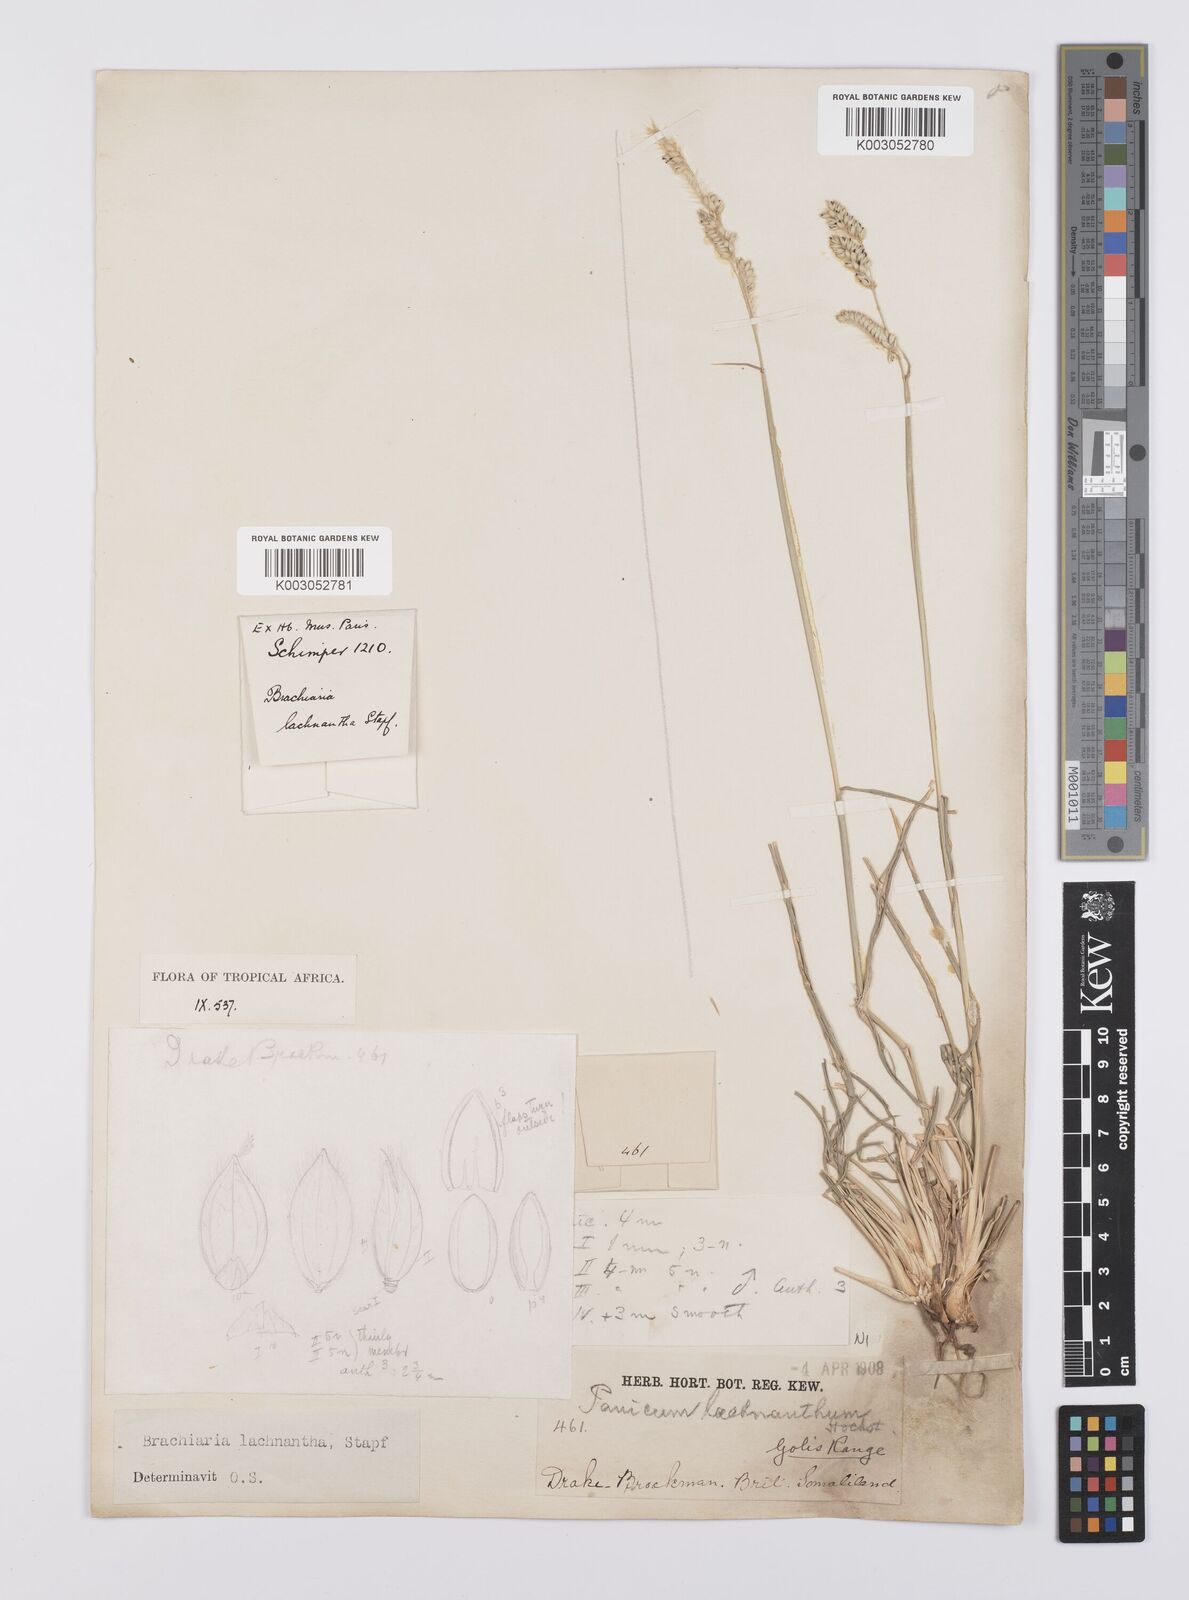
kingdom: Plantae
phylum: Tracheophyta
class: Liliopsida
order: Poales
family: Poaceae
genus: Urochloa
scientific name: Urochloa lachnantha
